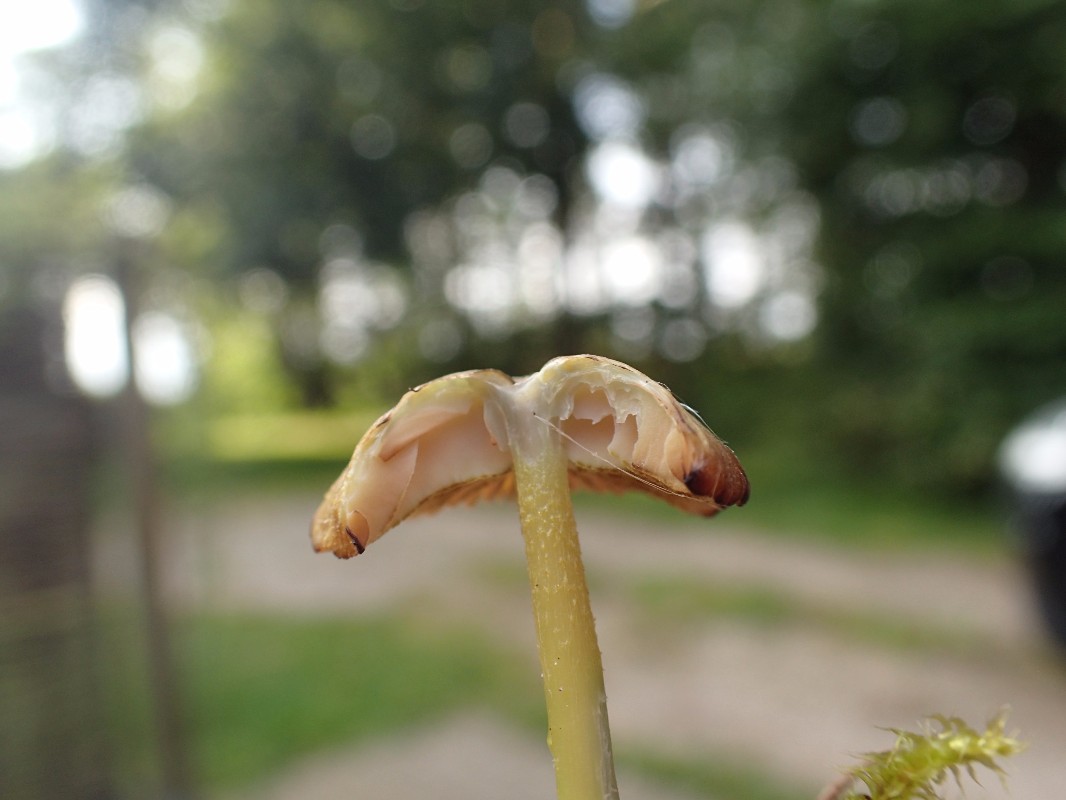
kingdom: Fungi
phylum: Basidiomycota
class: Agaricomycetes
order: Agaricales
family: Entolomataceae
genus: Entoloma
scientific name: Entoloma formosum
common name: brungul rødblad
